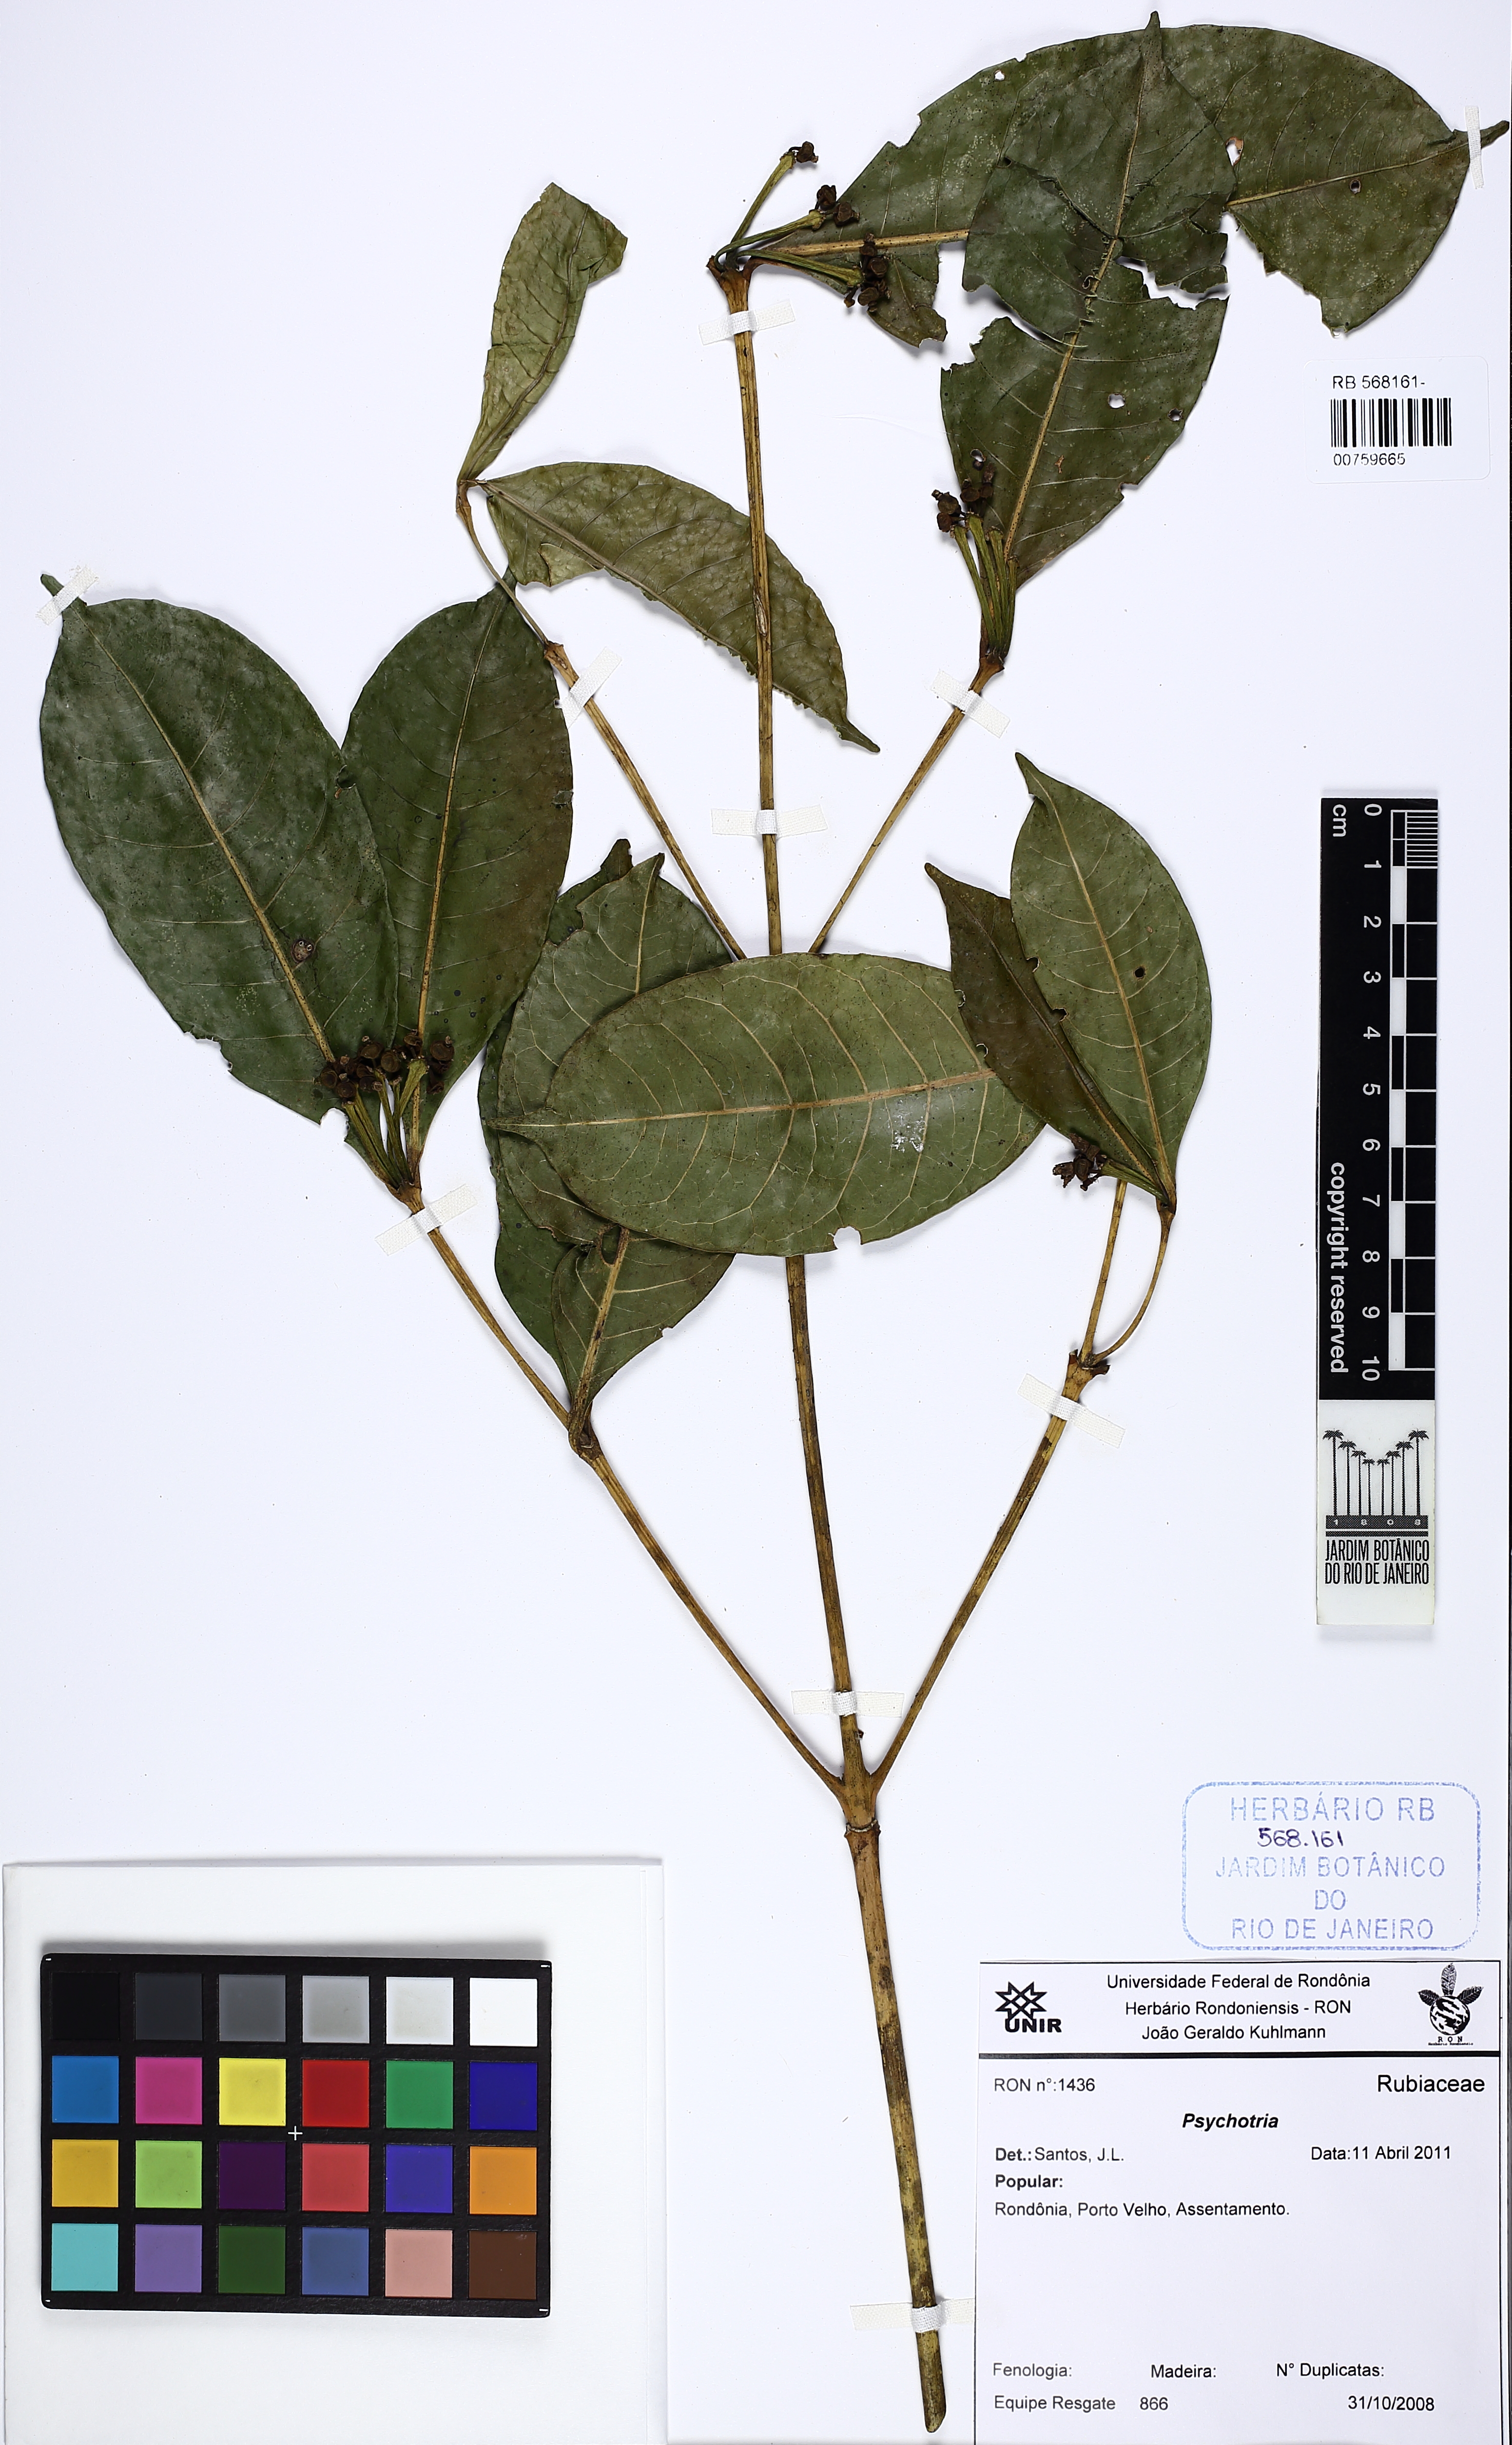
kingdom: Plantae
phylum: Tracheophyta
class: Magnoliopsida
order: Gentianales
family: Rubiaceae
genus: Faramea
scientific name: Faramea corymbosa
